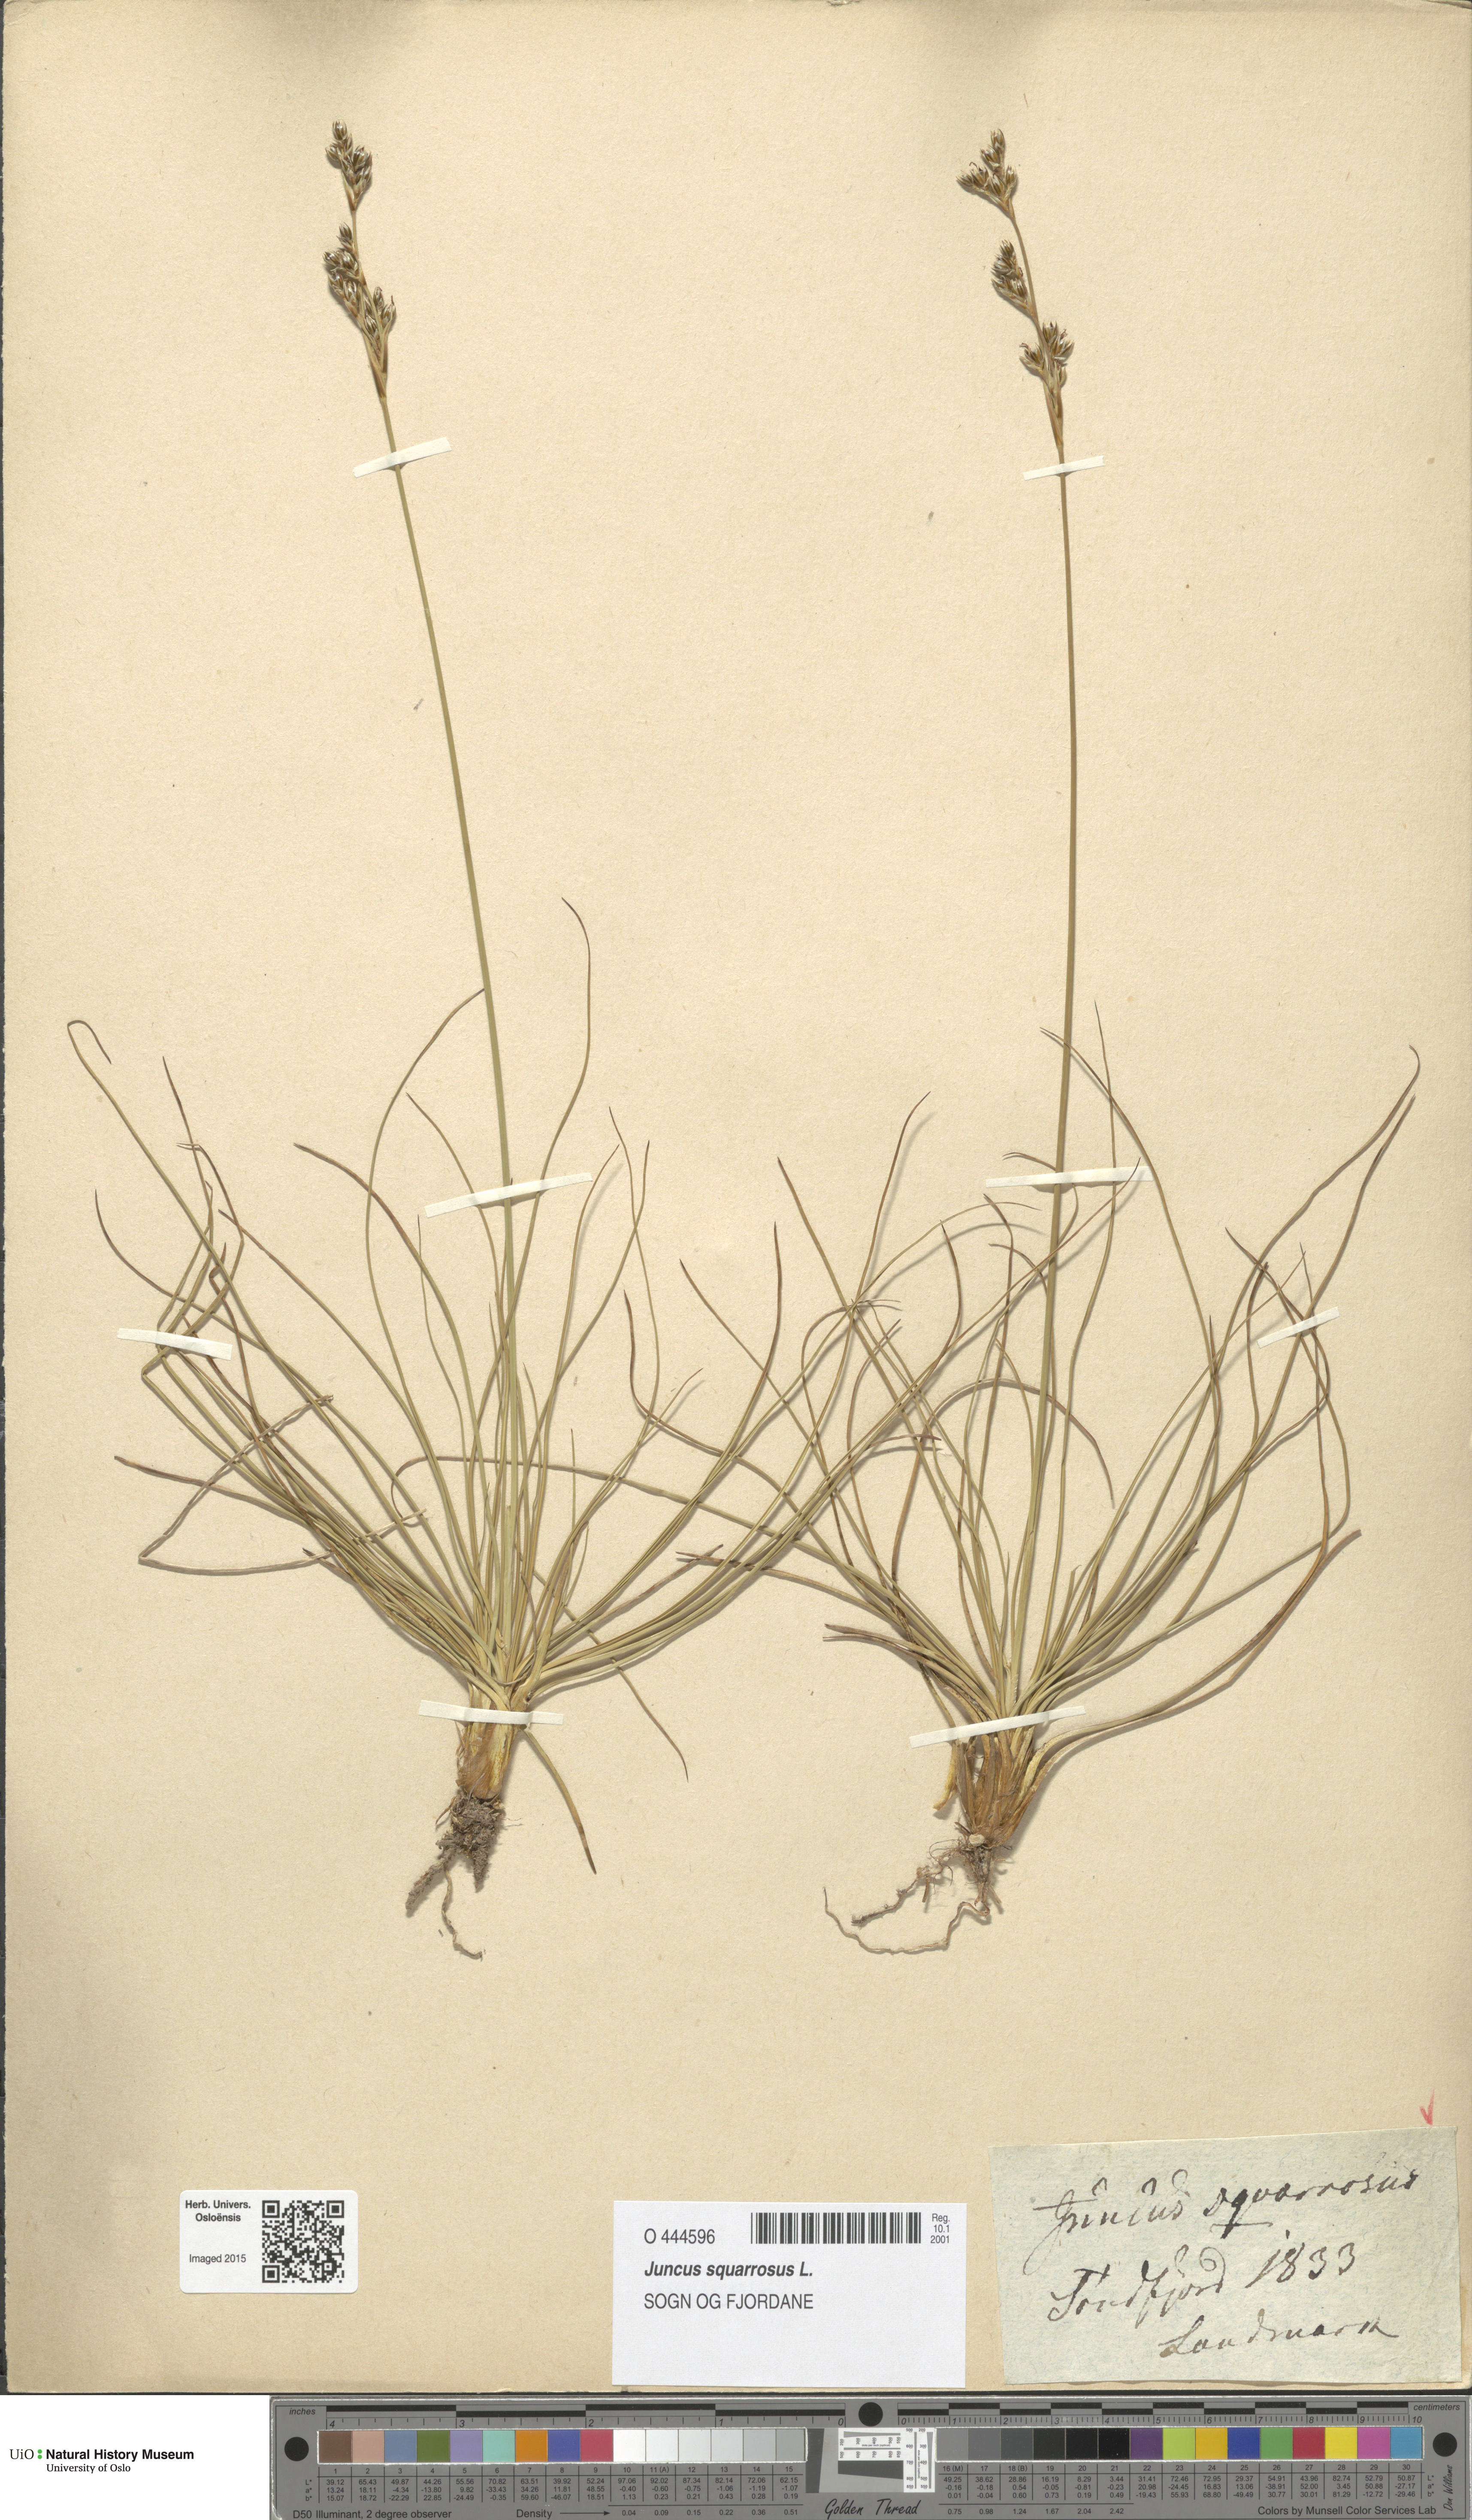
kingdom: Plantae
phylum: Tracheophyta
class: Liliopsida
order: Poales
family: Juncaceae
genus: Juncus
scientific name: Juncus squarrosus
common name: Heath rush
